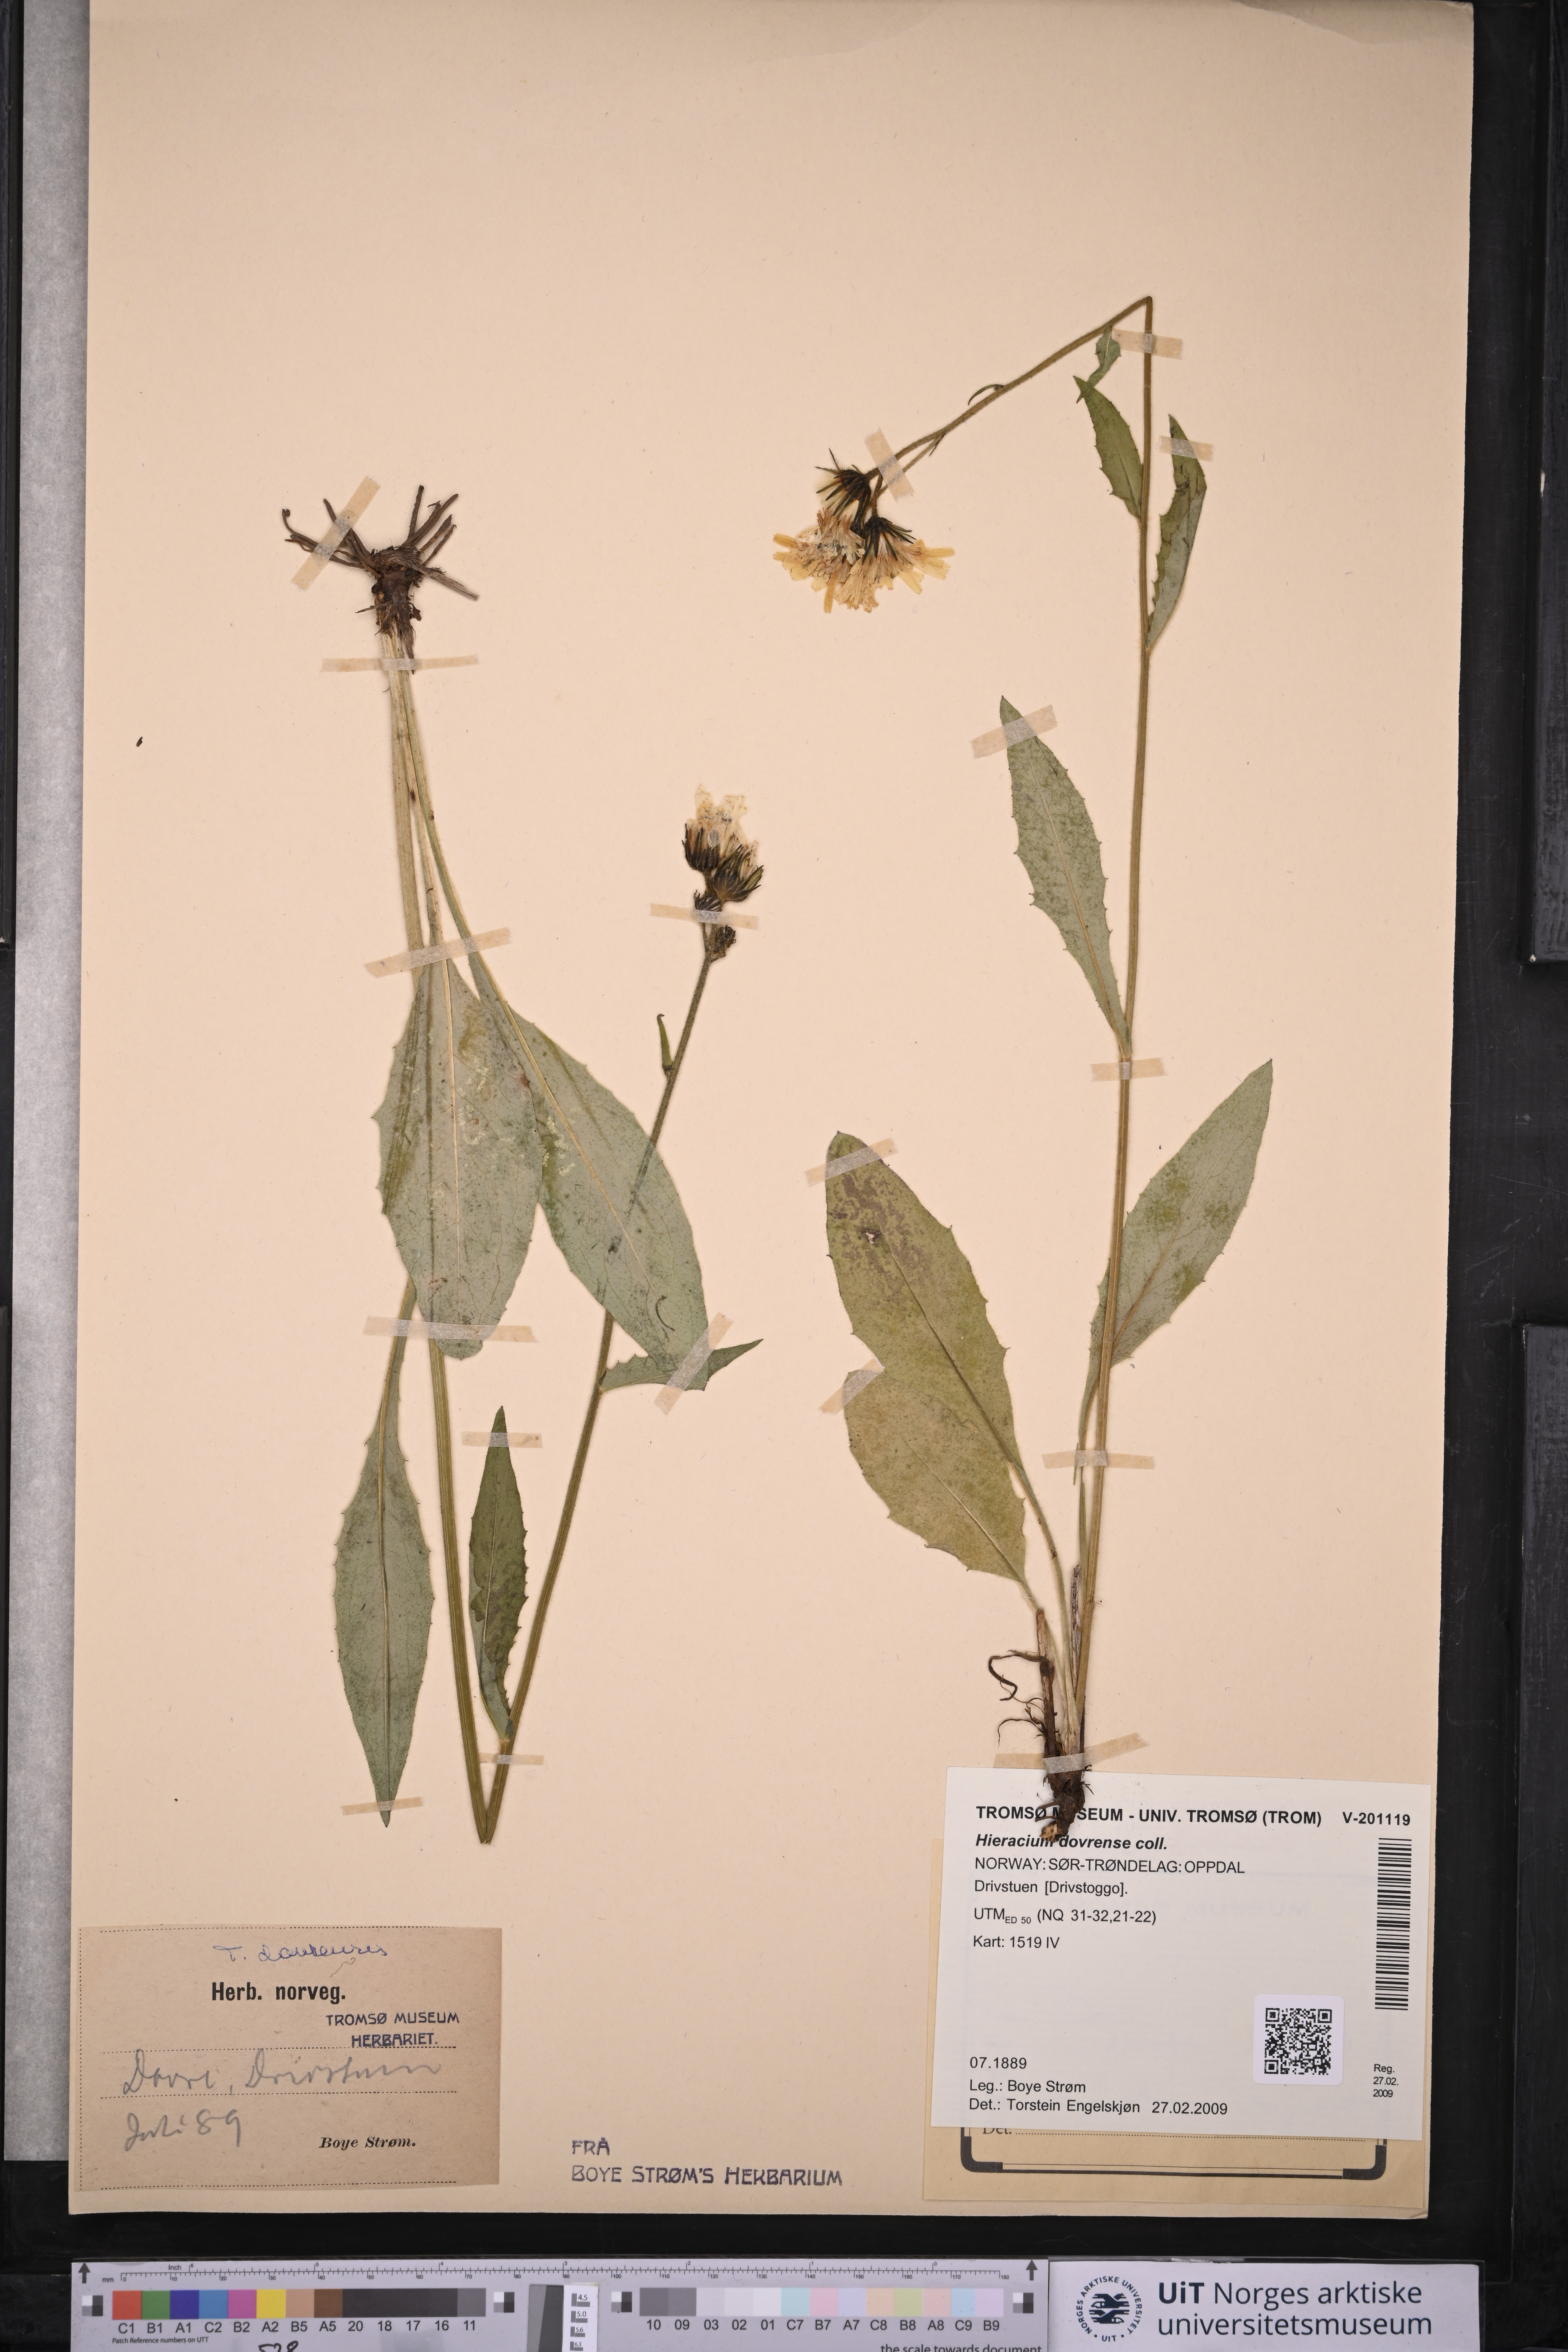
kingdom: Plantae
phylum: Tracheophyta
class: Magnoliopsida
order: Asterales
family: Asteraceae
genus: Hieracium
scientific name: Hieracium dovrense
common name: Dovre hawkweed
